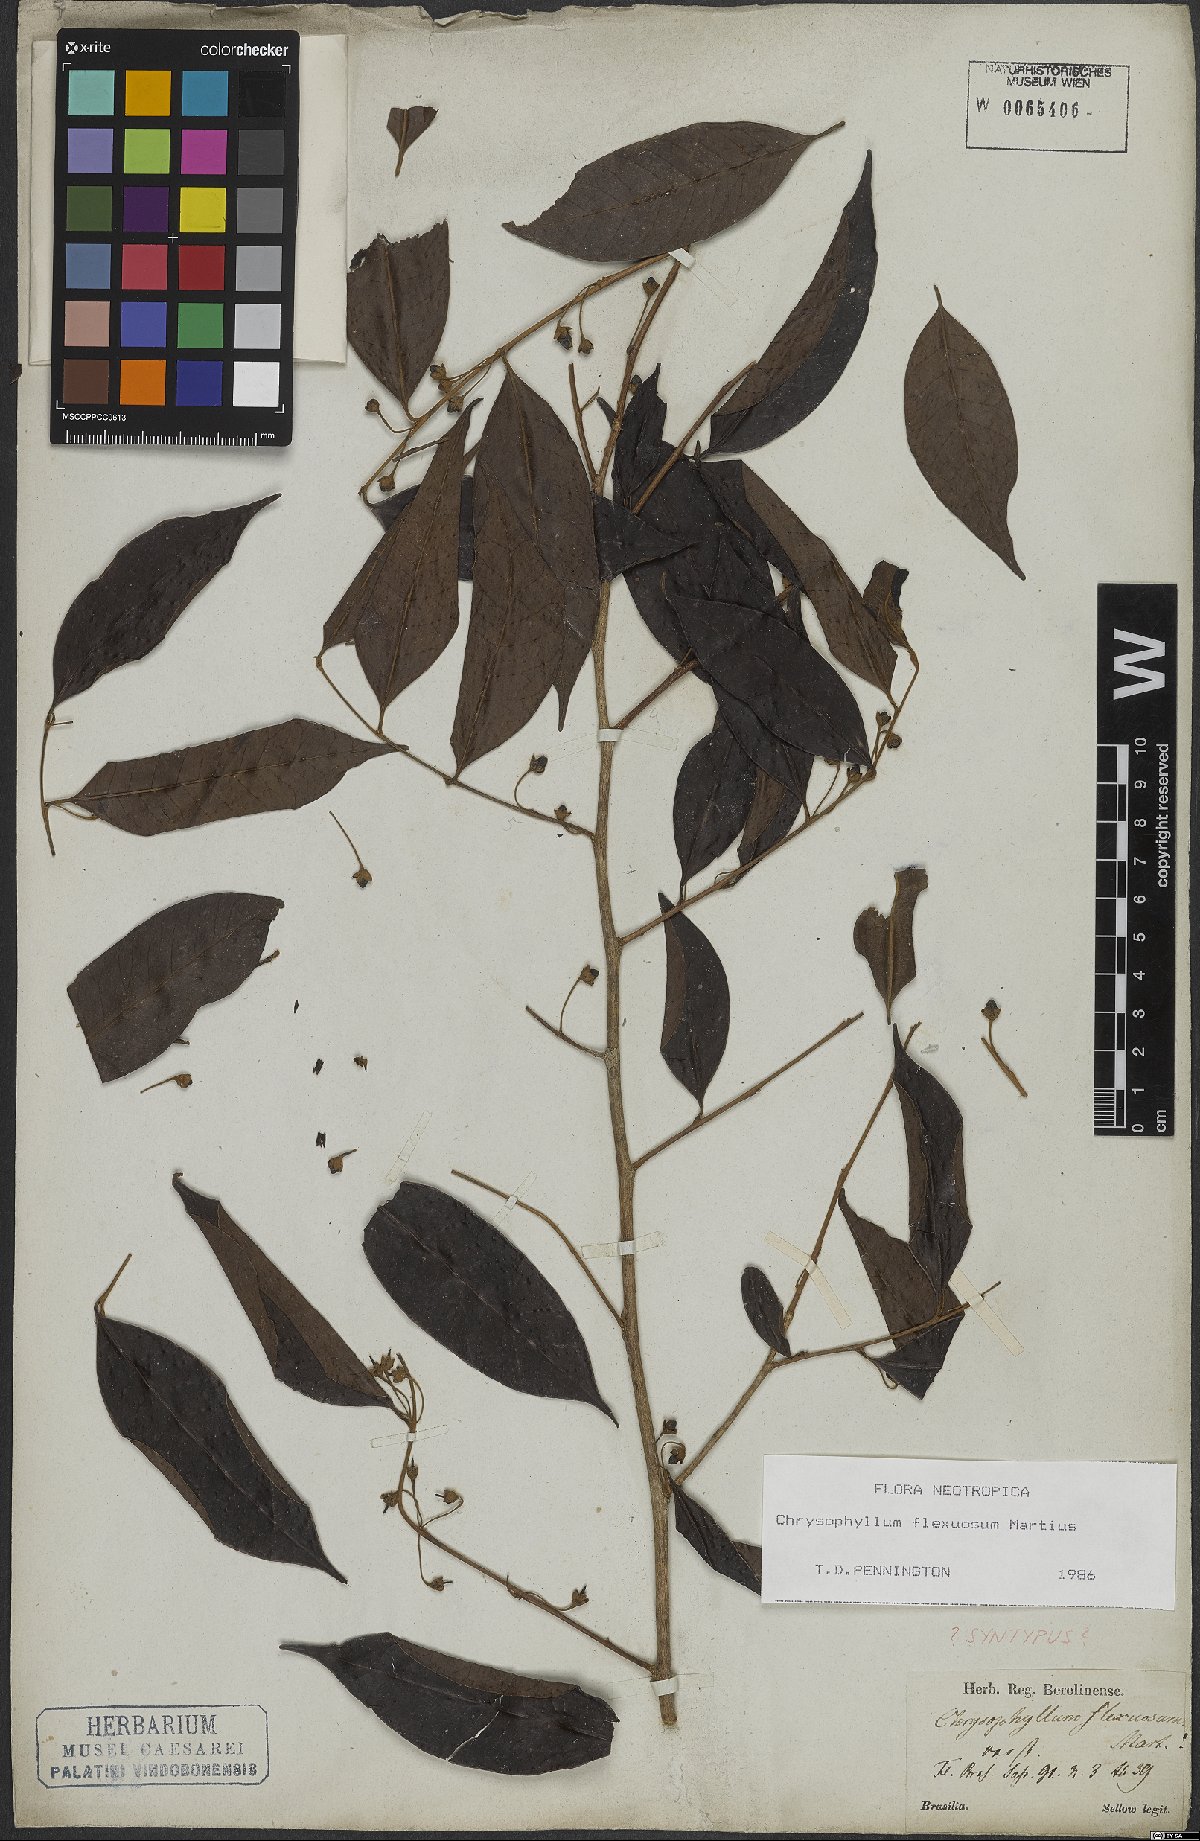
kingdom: Plantae
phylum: Tracheophyta
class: Magnoliopsida
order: Ericales
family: Sapotaceae
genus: Chrysophyllum
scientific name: Chrysophyllum flexuosum
